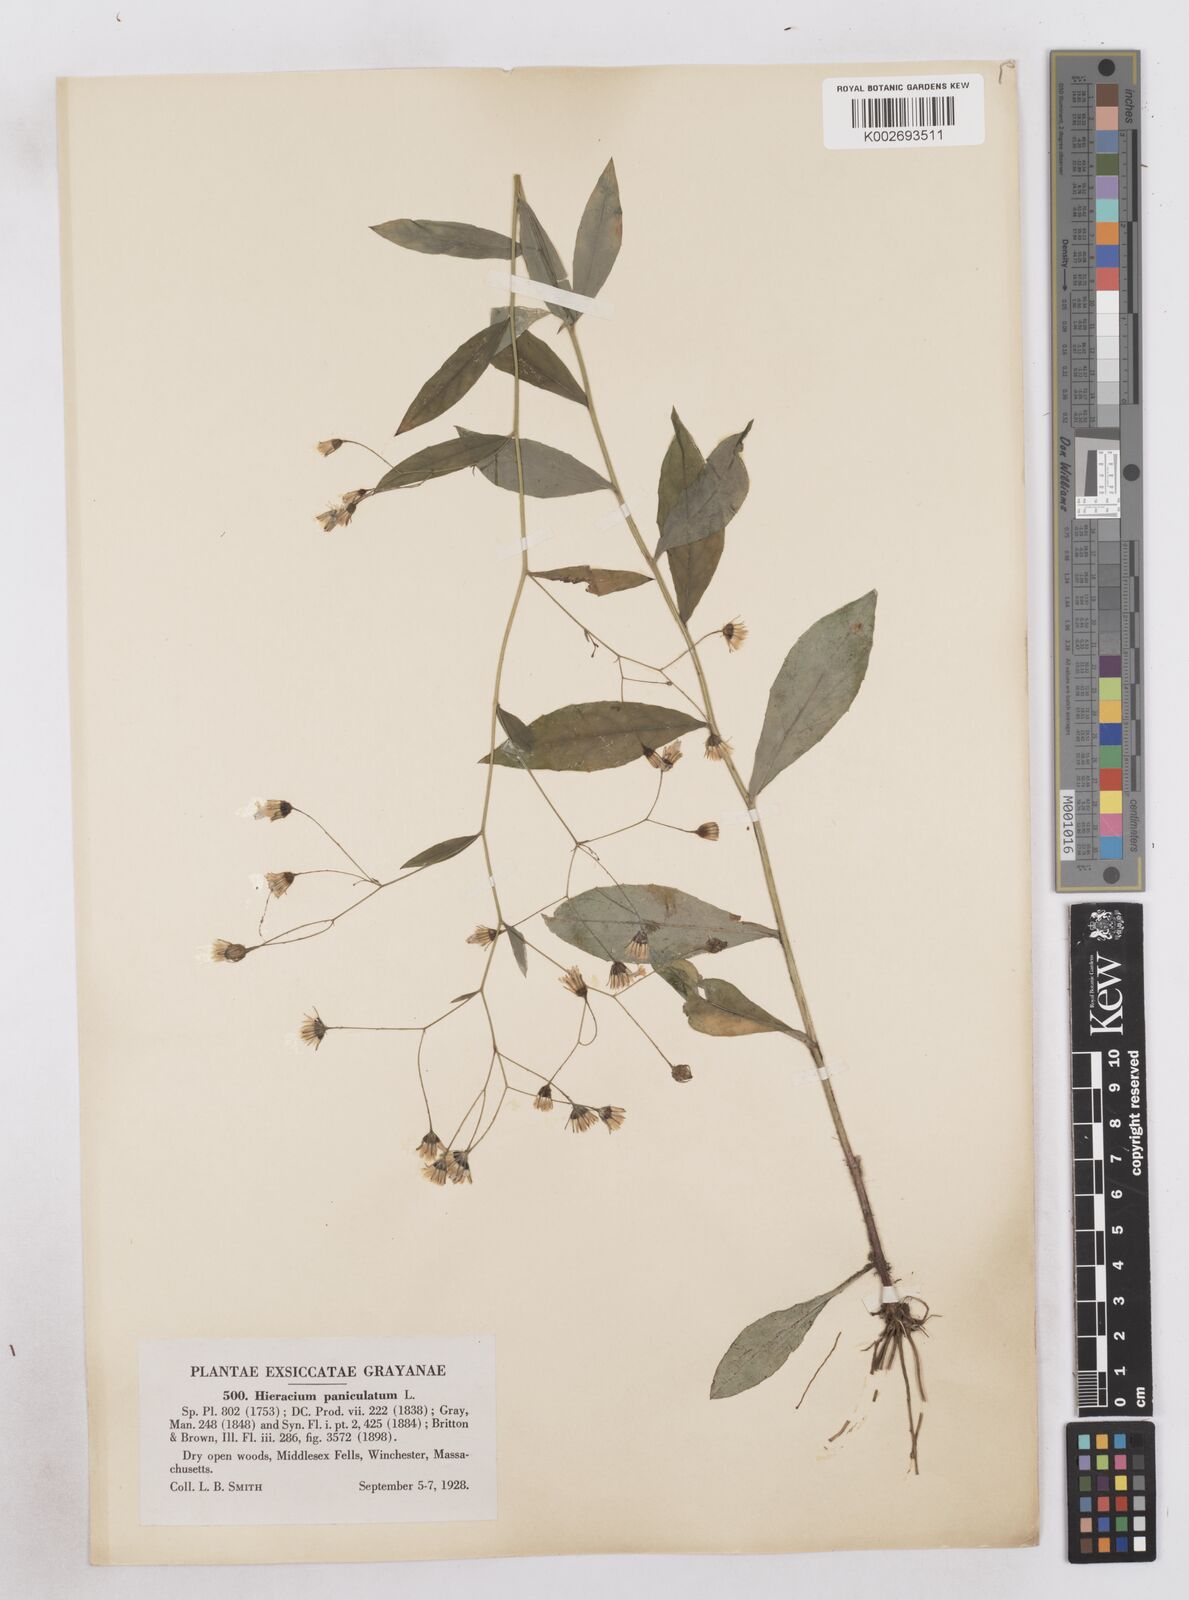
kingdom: Plantae
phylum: Tracheophyta
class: Magnoliopsida
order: Asterales
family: Asteraceae
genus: Hieracium
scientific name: Hieracium paniculatum
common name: Allegheny hawkweed
